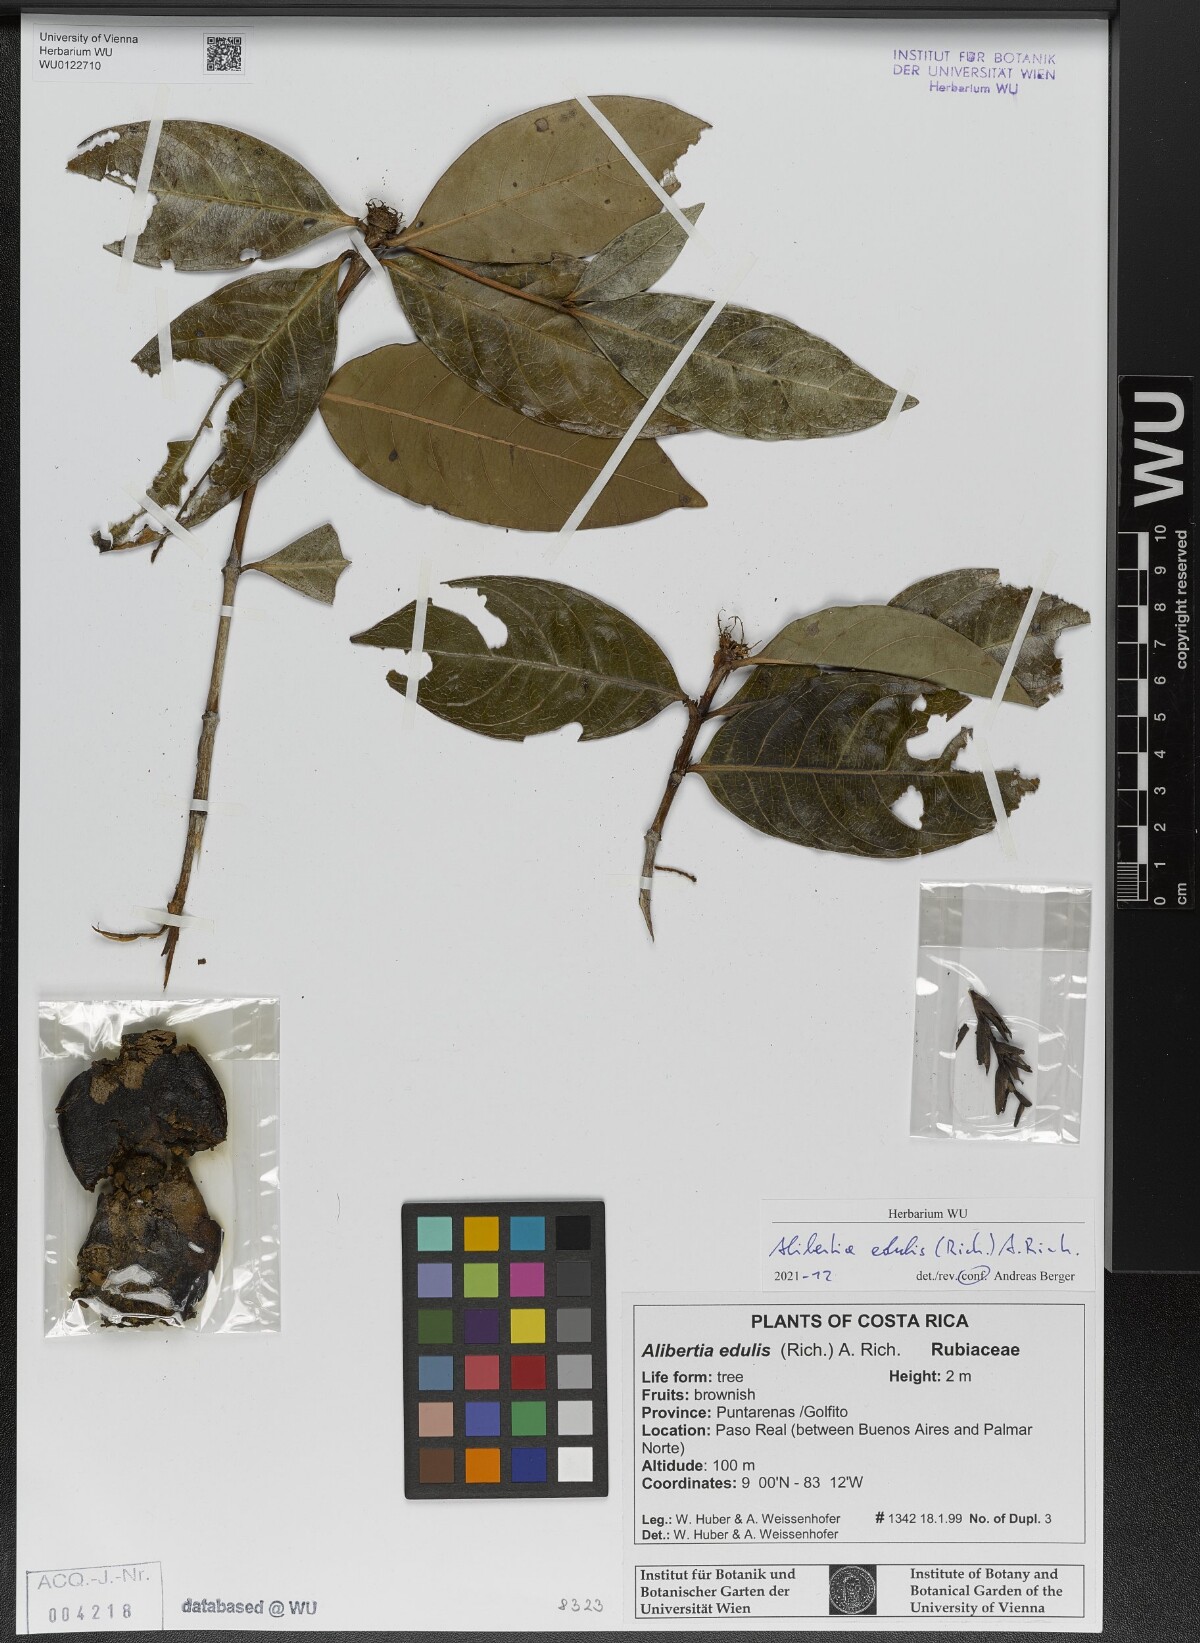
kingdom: Plantae
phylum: Tracheophyta
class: Magnoliopsida
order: Gentianales
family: Rubiaceae
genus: Alibertia
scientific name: Alibertia edulis
